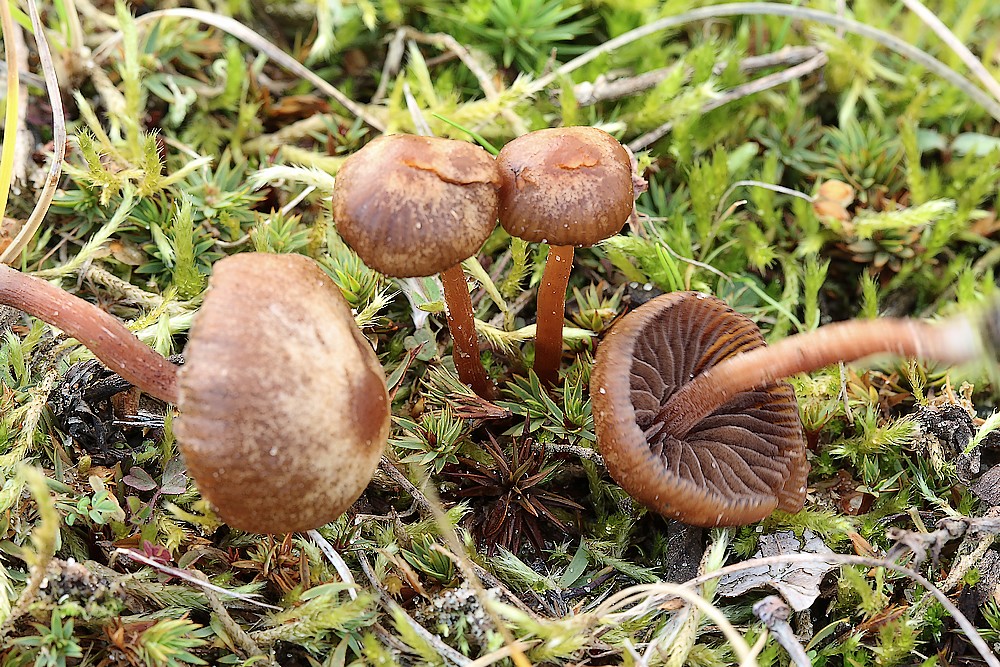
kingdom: Fungi
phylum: Basidiomycota
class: Agaricomycetes
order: Agaricales
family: Strophariaceae
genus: Deconica
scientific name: Deconica montana
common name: rødbrun stråhat
